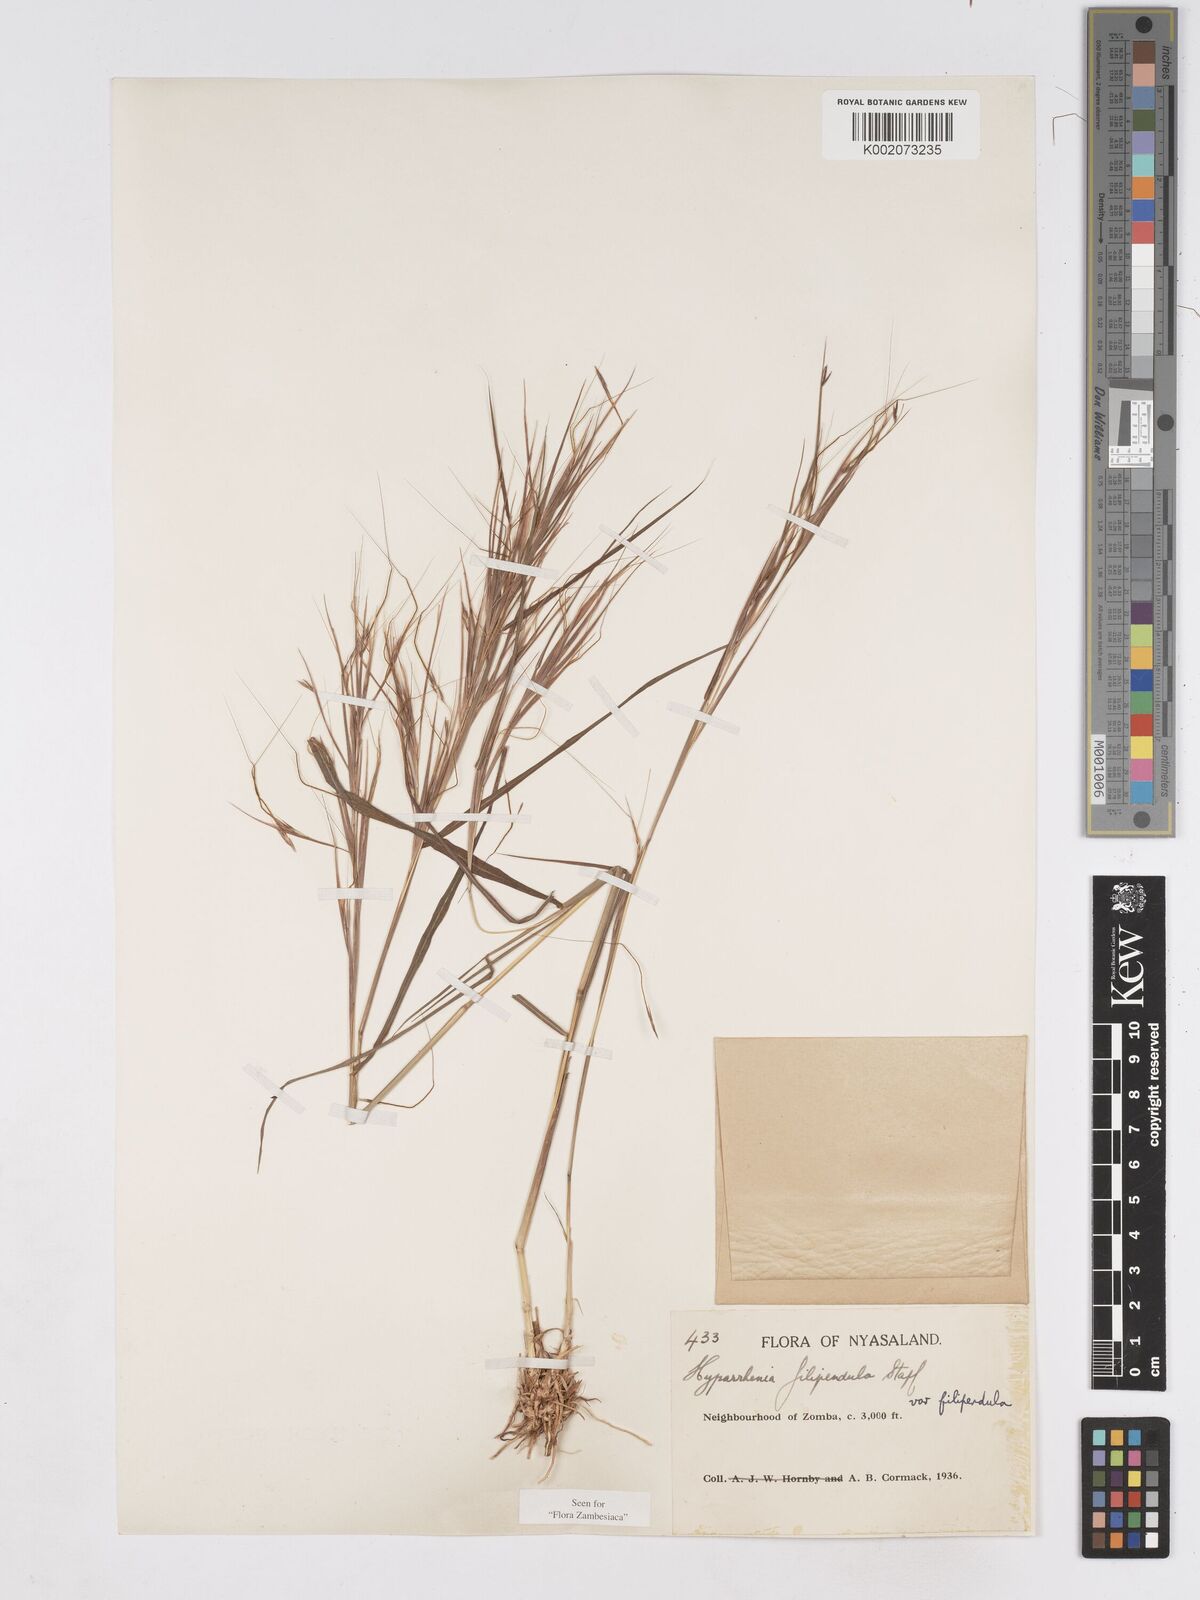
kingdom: Plantae
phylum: Tracheophyta
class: Liliopsida
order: Poales
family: Poaceae
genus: Hyparrhenia
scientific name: Hyparrhenia filipendula
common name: Tambookie grass
